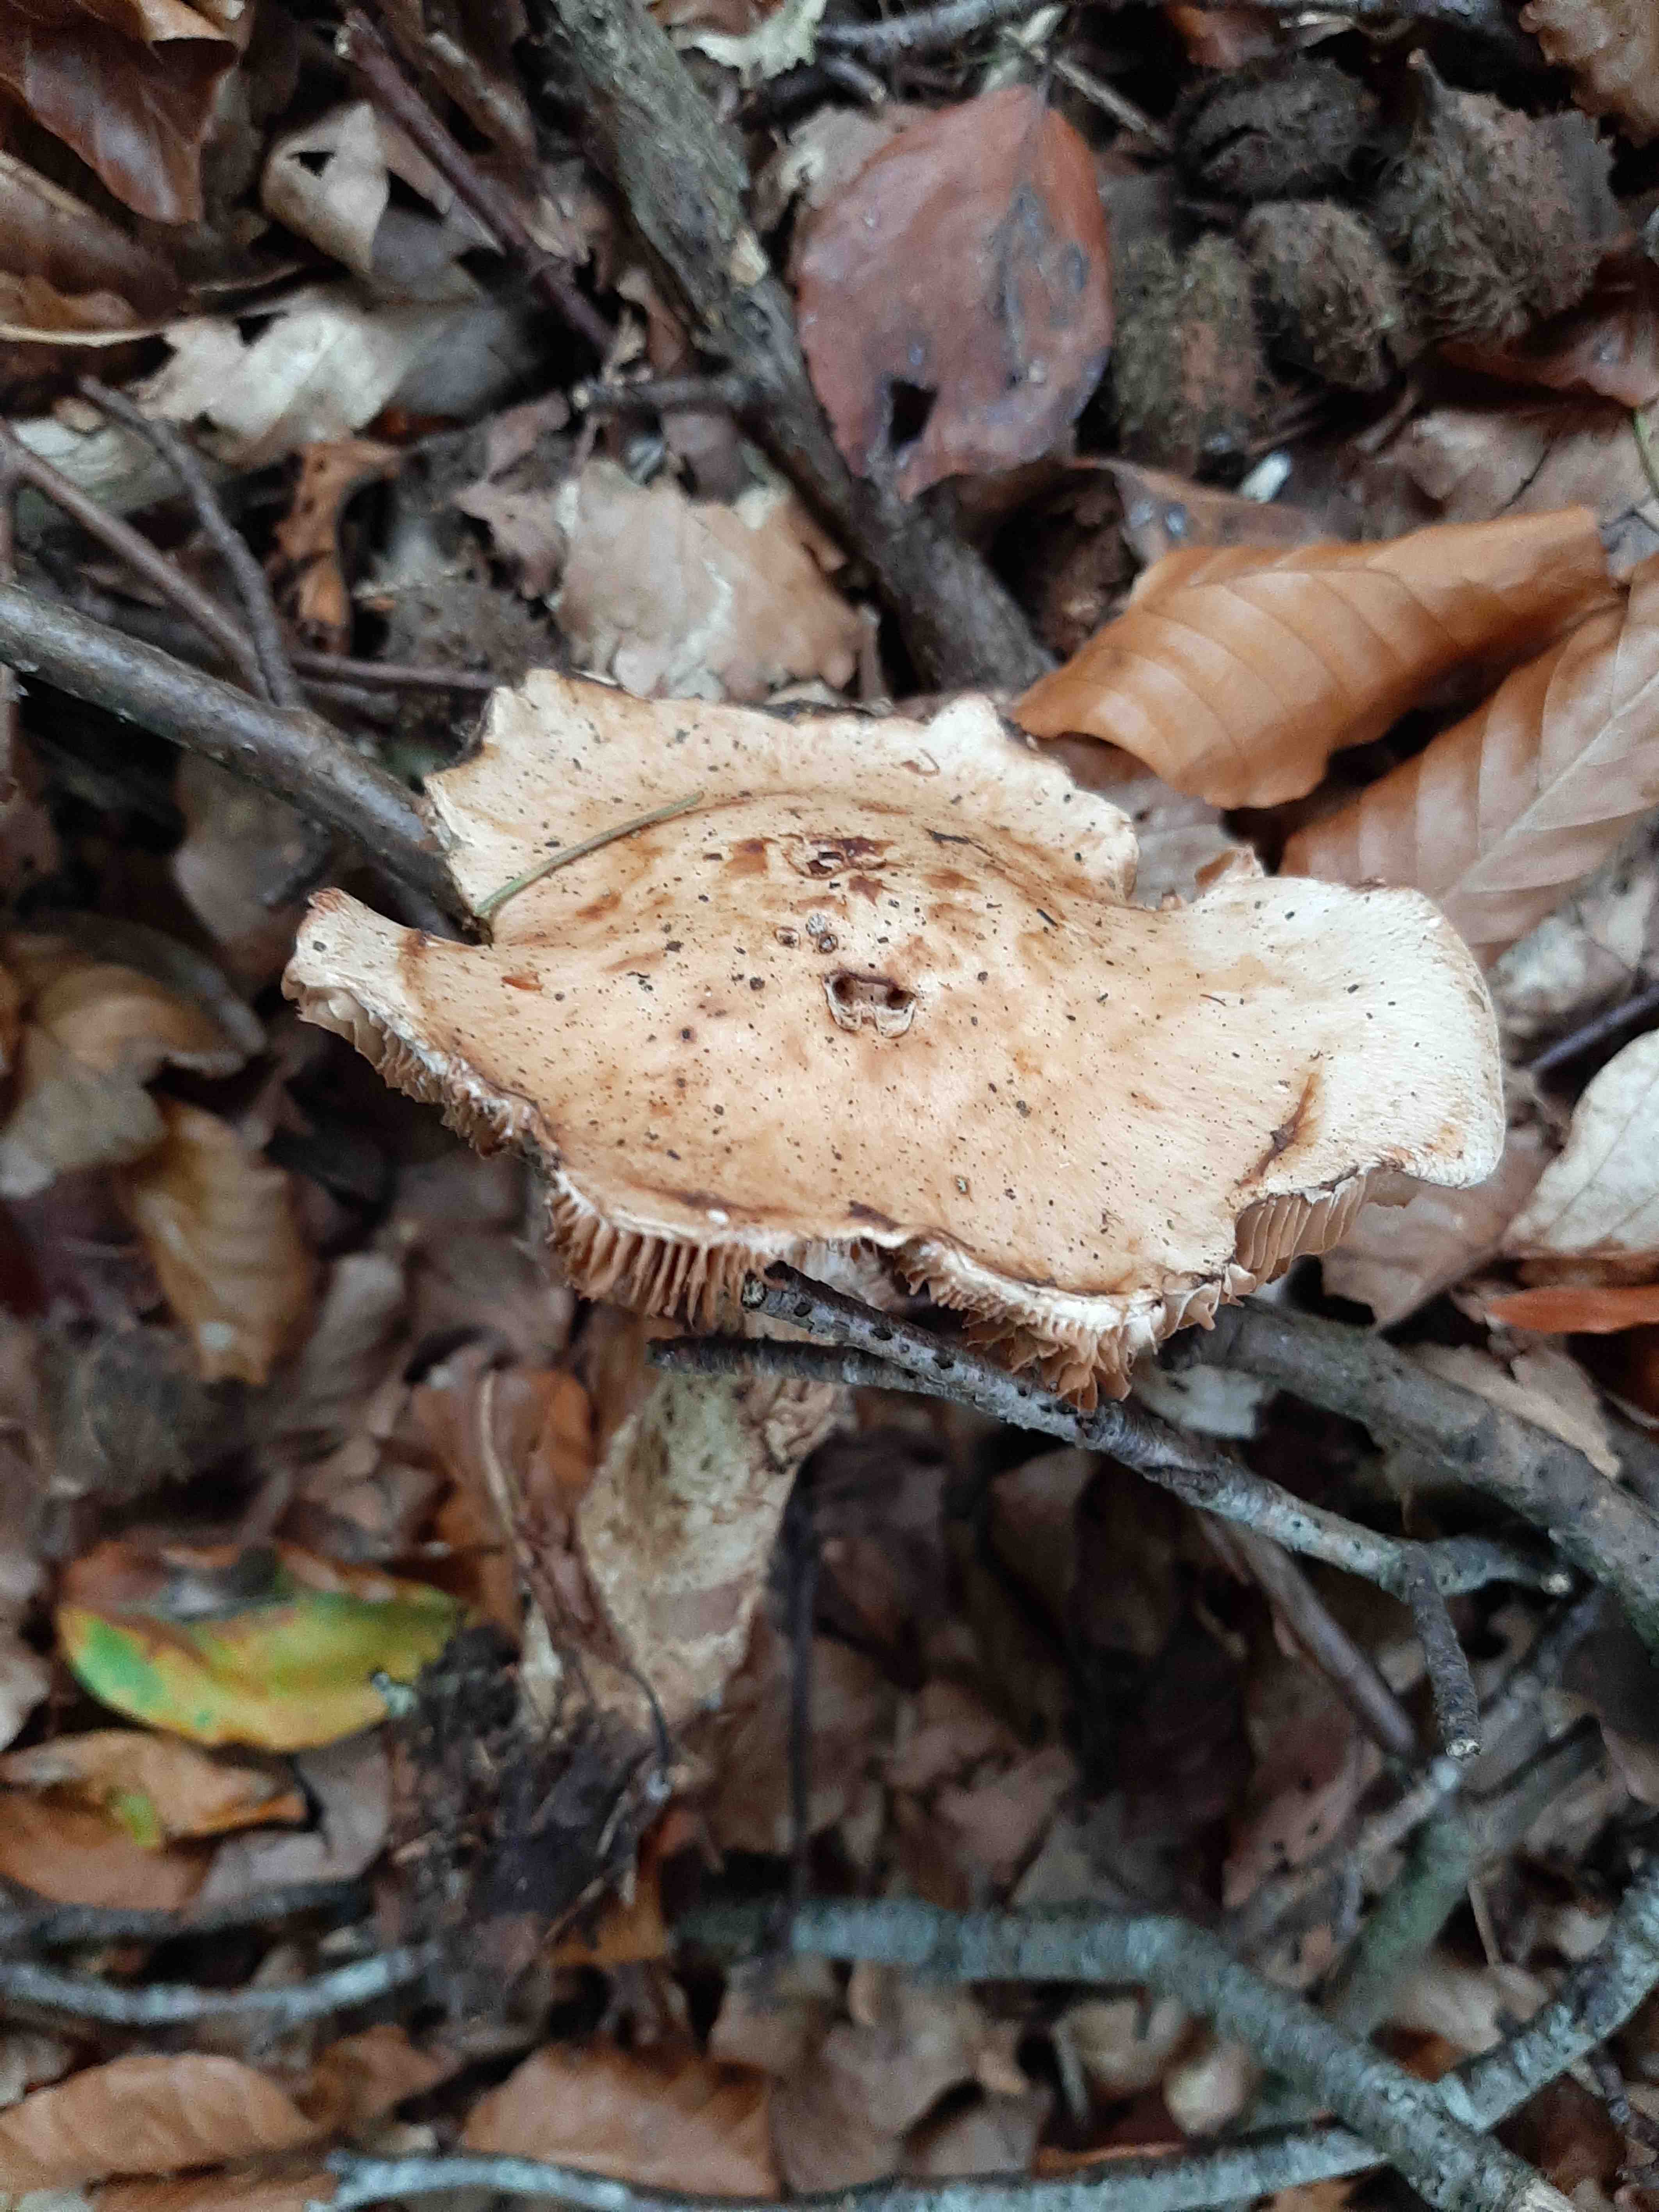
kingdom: Fungi
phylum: Basidiomycota
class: Agaricomycetes
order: Agaricales
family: Hymenogastraceae
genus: Hebeloma
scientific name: Hebeloma radicosum
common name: pælerods-tåreblad
